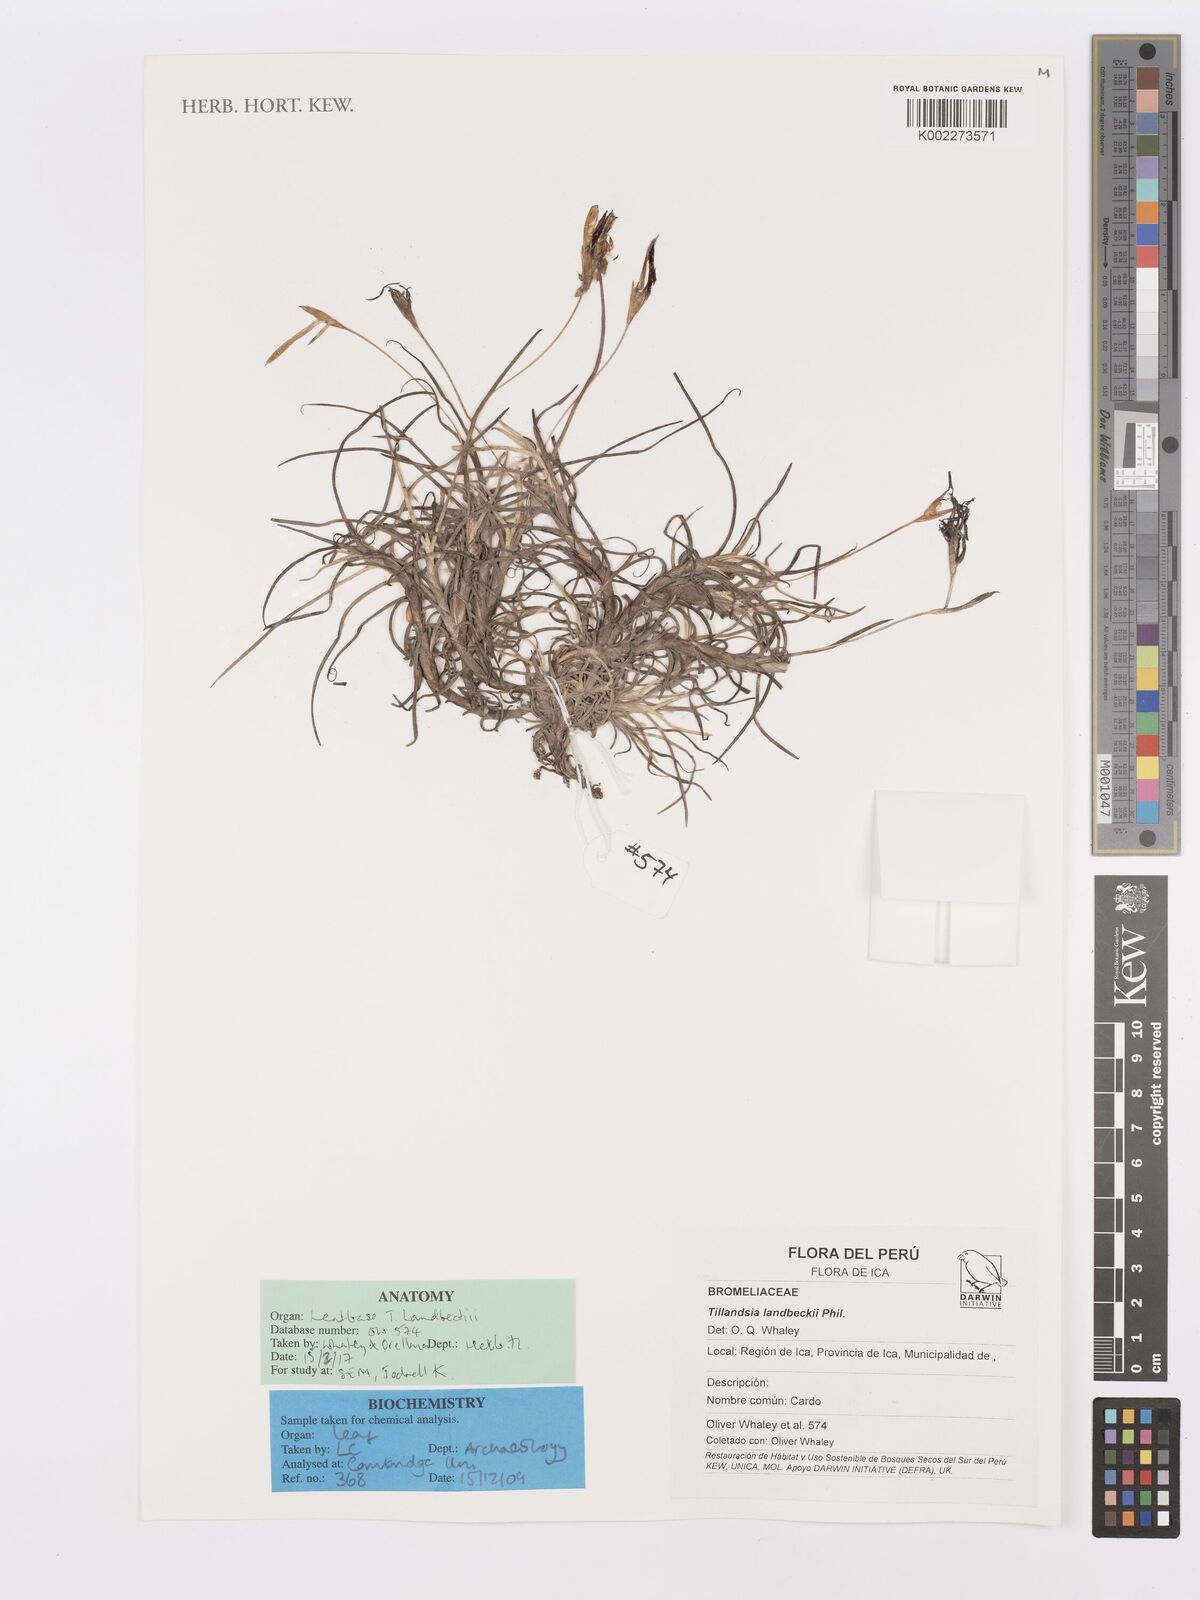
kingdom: Plantae
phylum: Tracheophyta
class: Liliopsida
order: Poales
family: Bromeliaceae
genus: Tillandsia
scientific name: Tillandsia landbeckii
